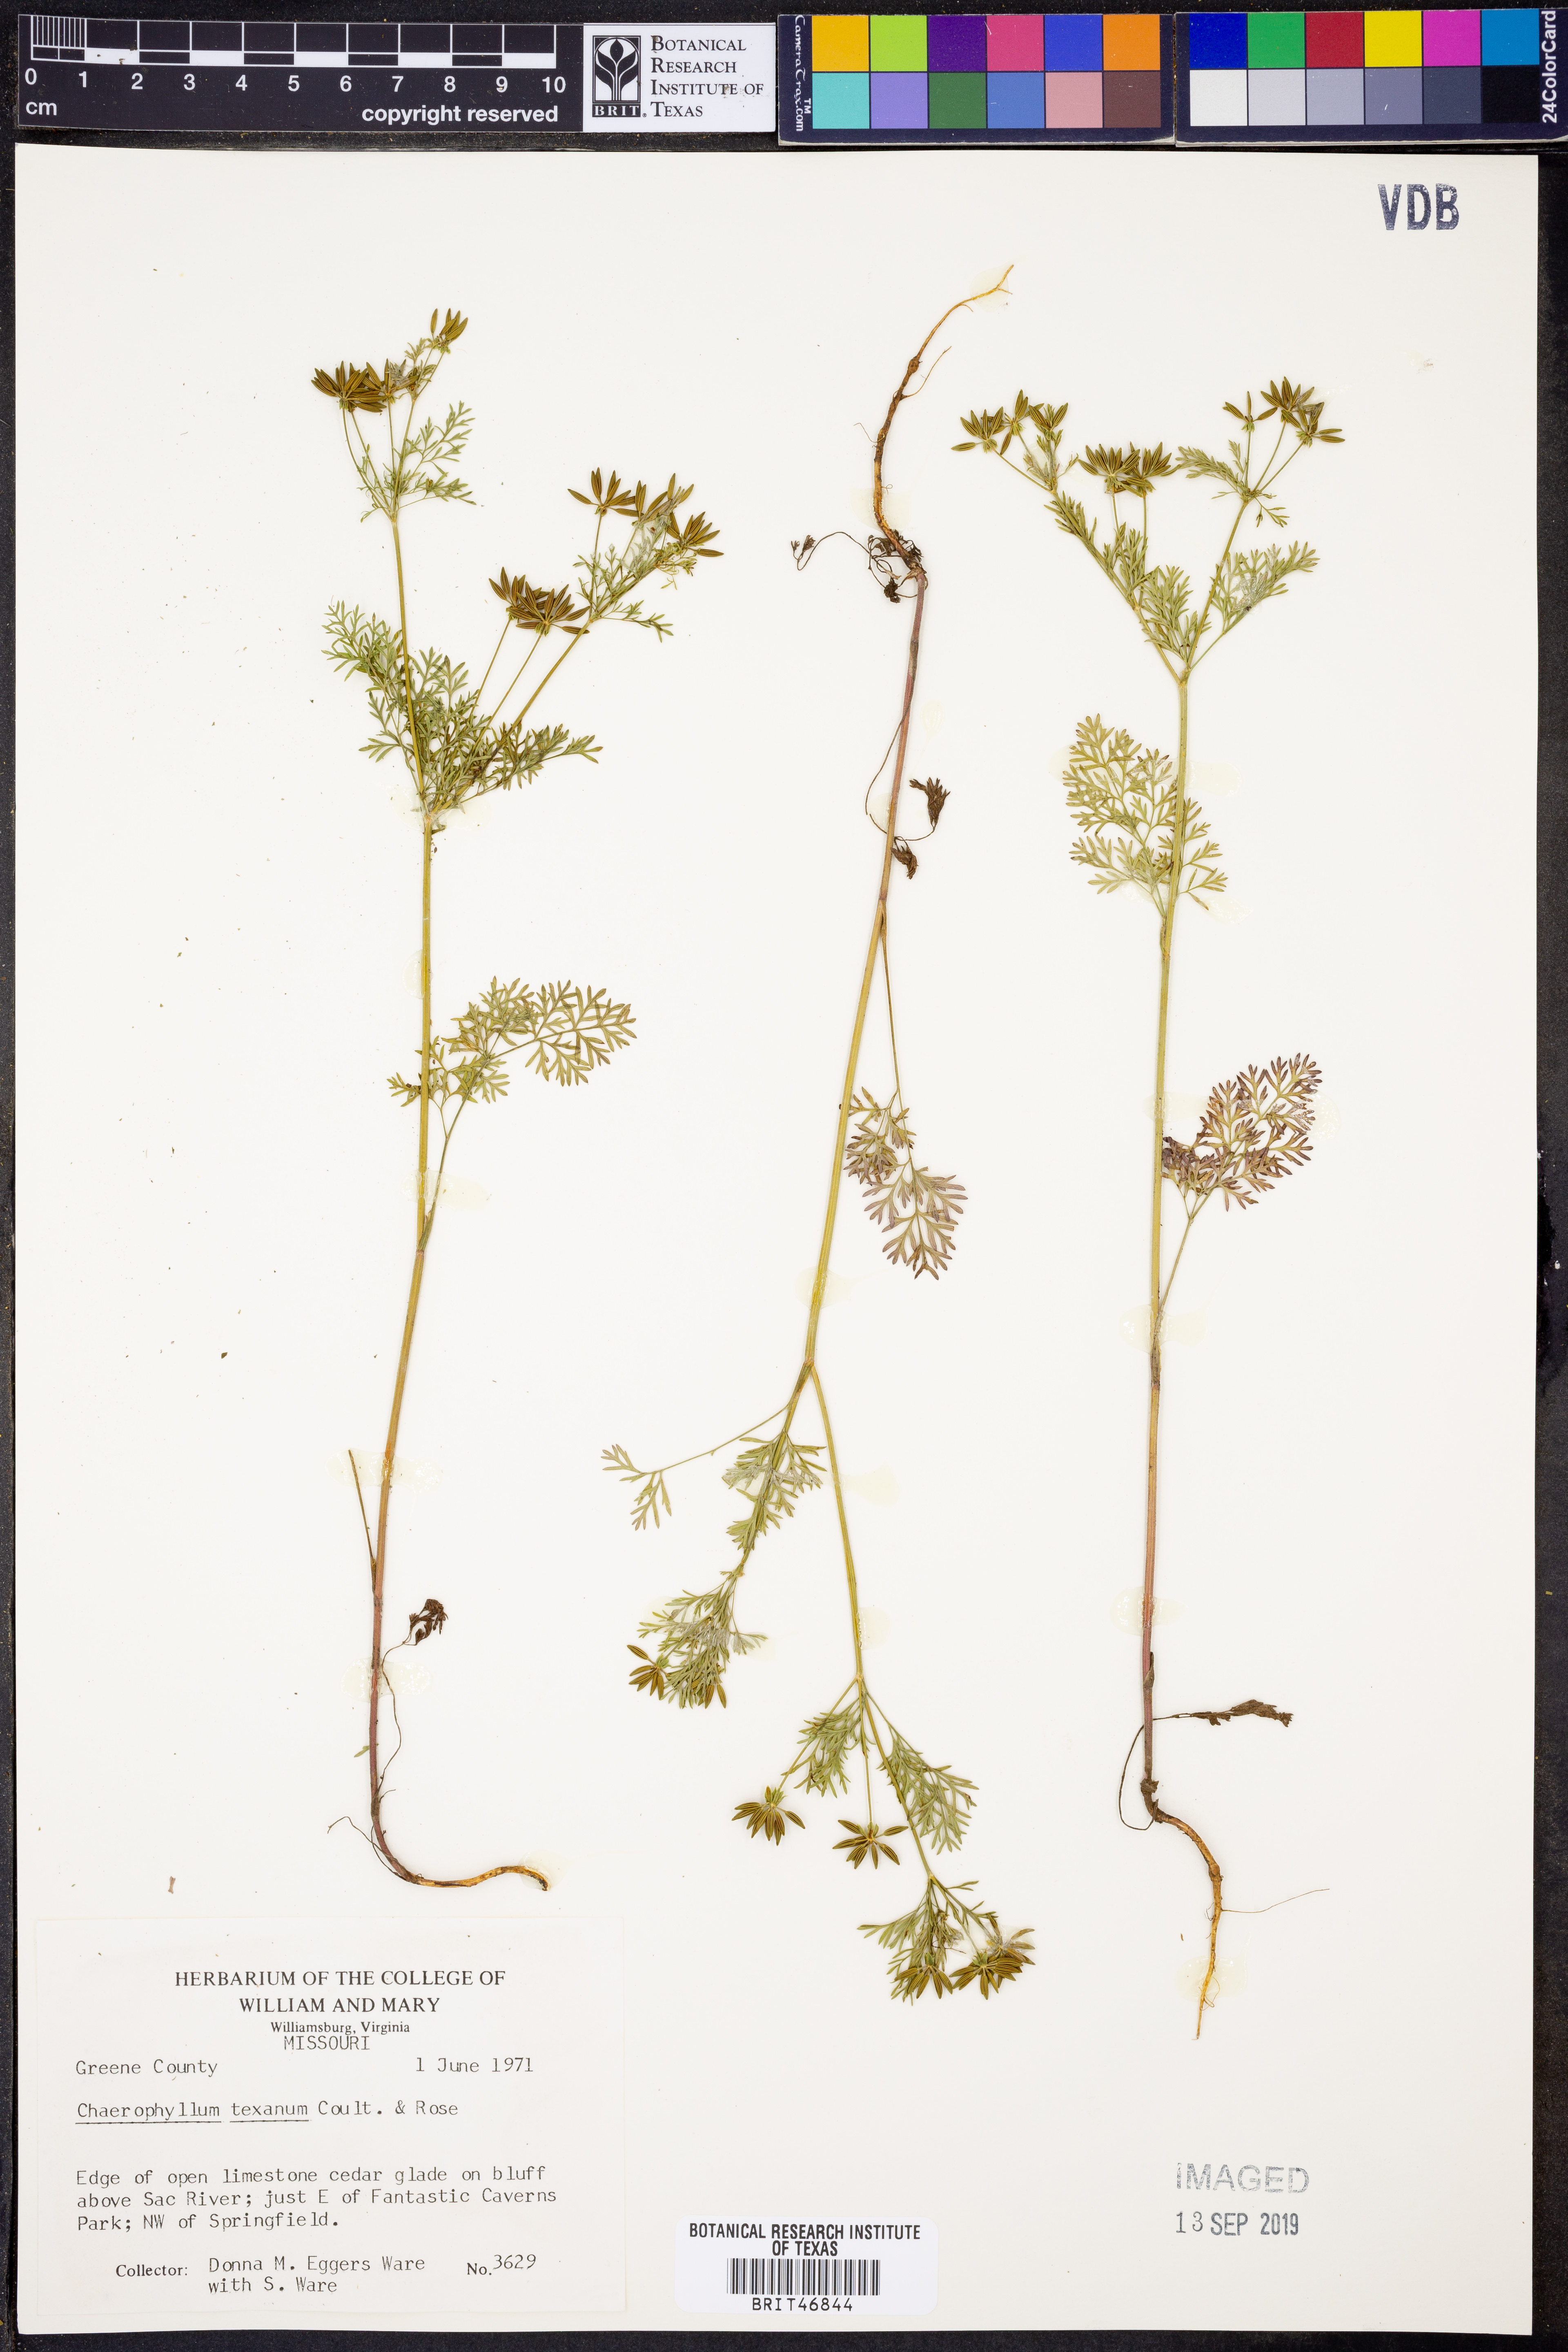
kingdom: Plantae
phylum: Tracheophyta
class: Magnoliopsida
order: Apiales
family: Apiaceae
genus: Chaerophyllum
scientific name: Chaerophyllum tainturieri
